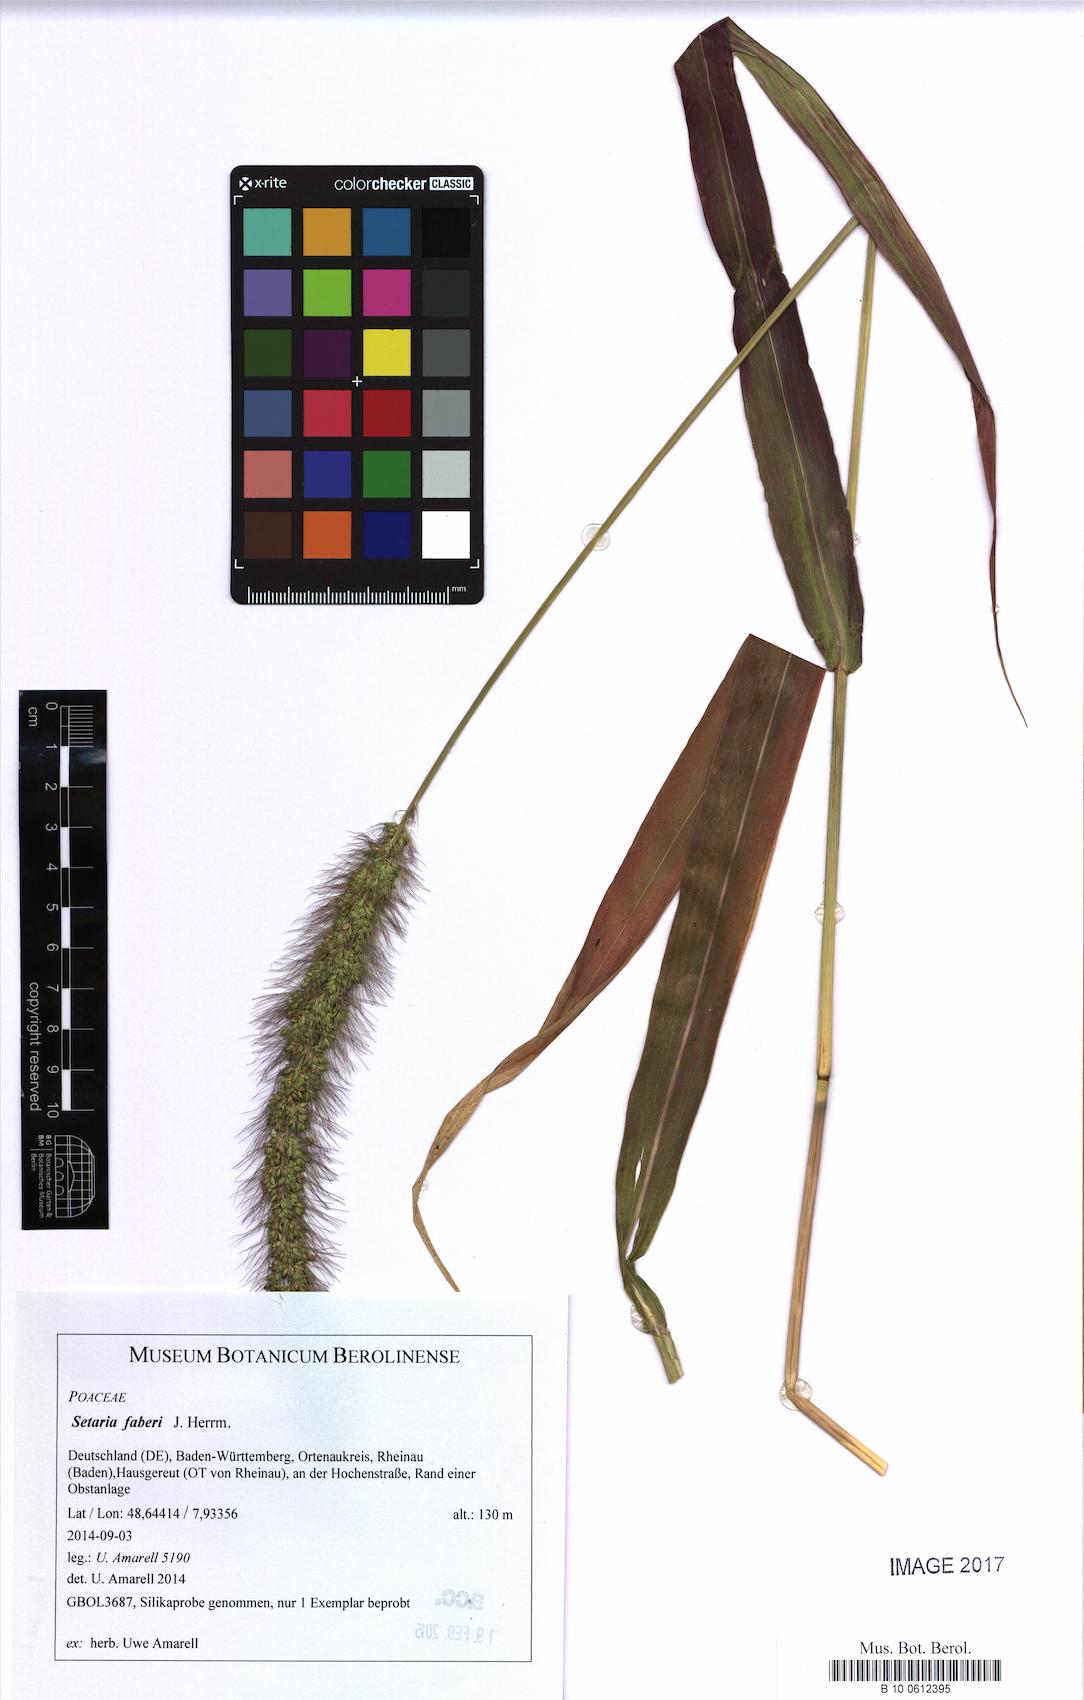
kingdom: Plantae
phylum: Tracheophyta
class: Liliopsida
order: Poales
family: Poaceae
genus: Setaria
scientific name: Setaria faberi
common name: Nodding bristle-grass
